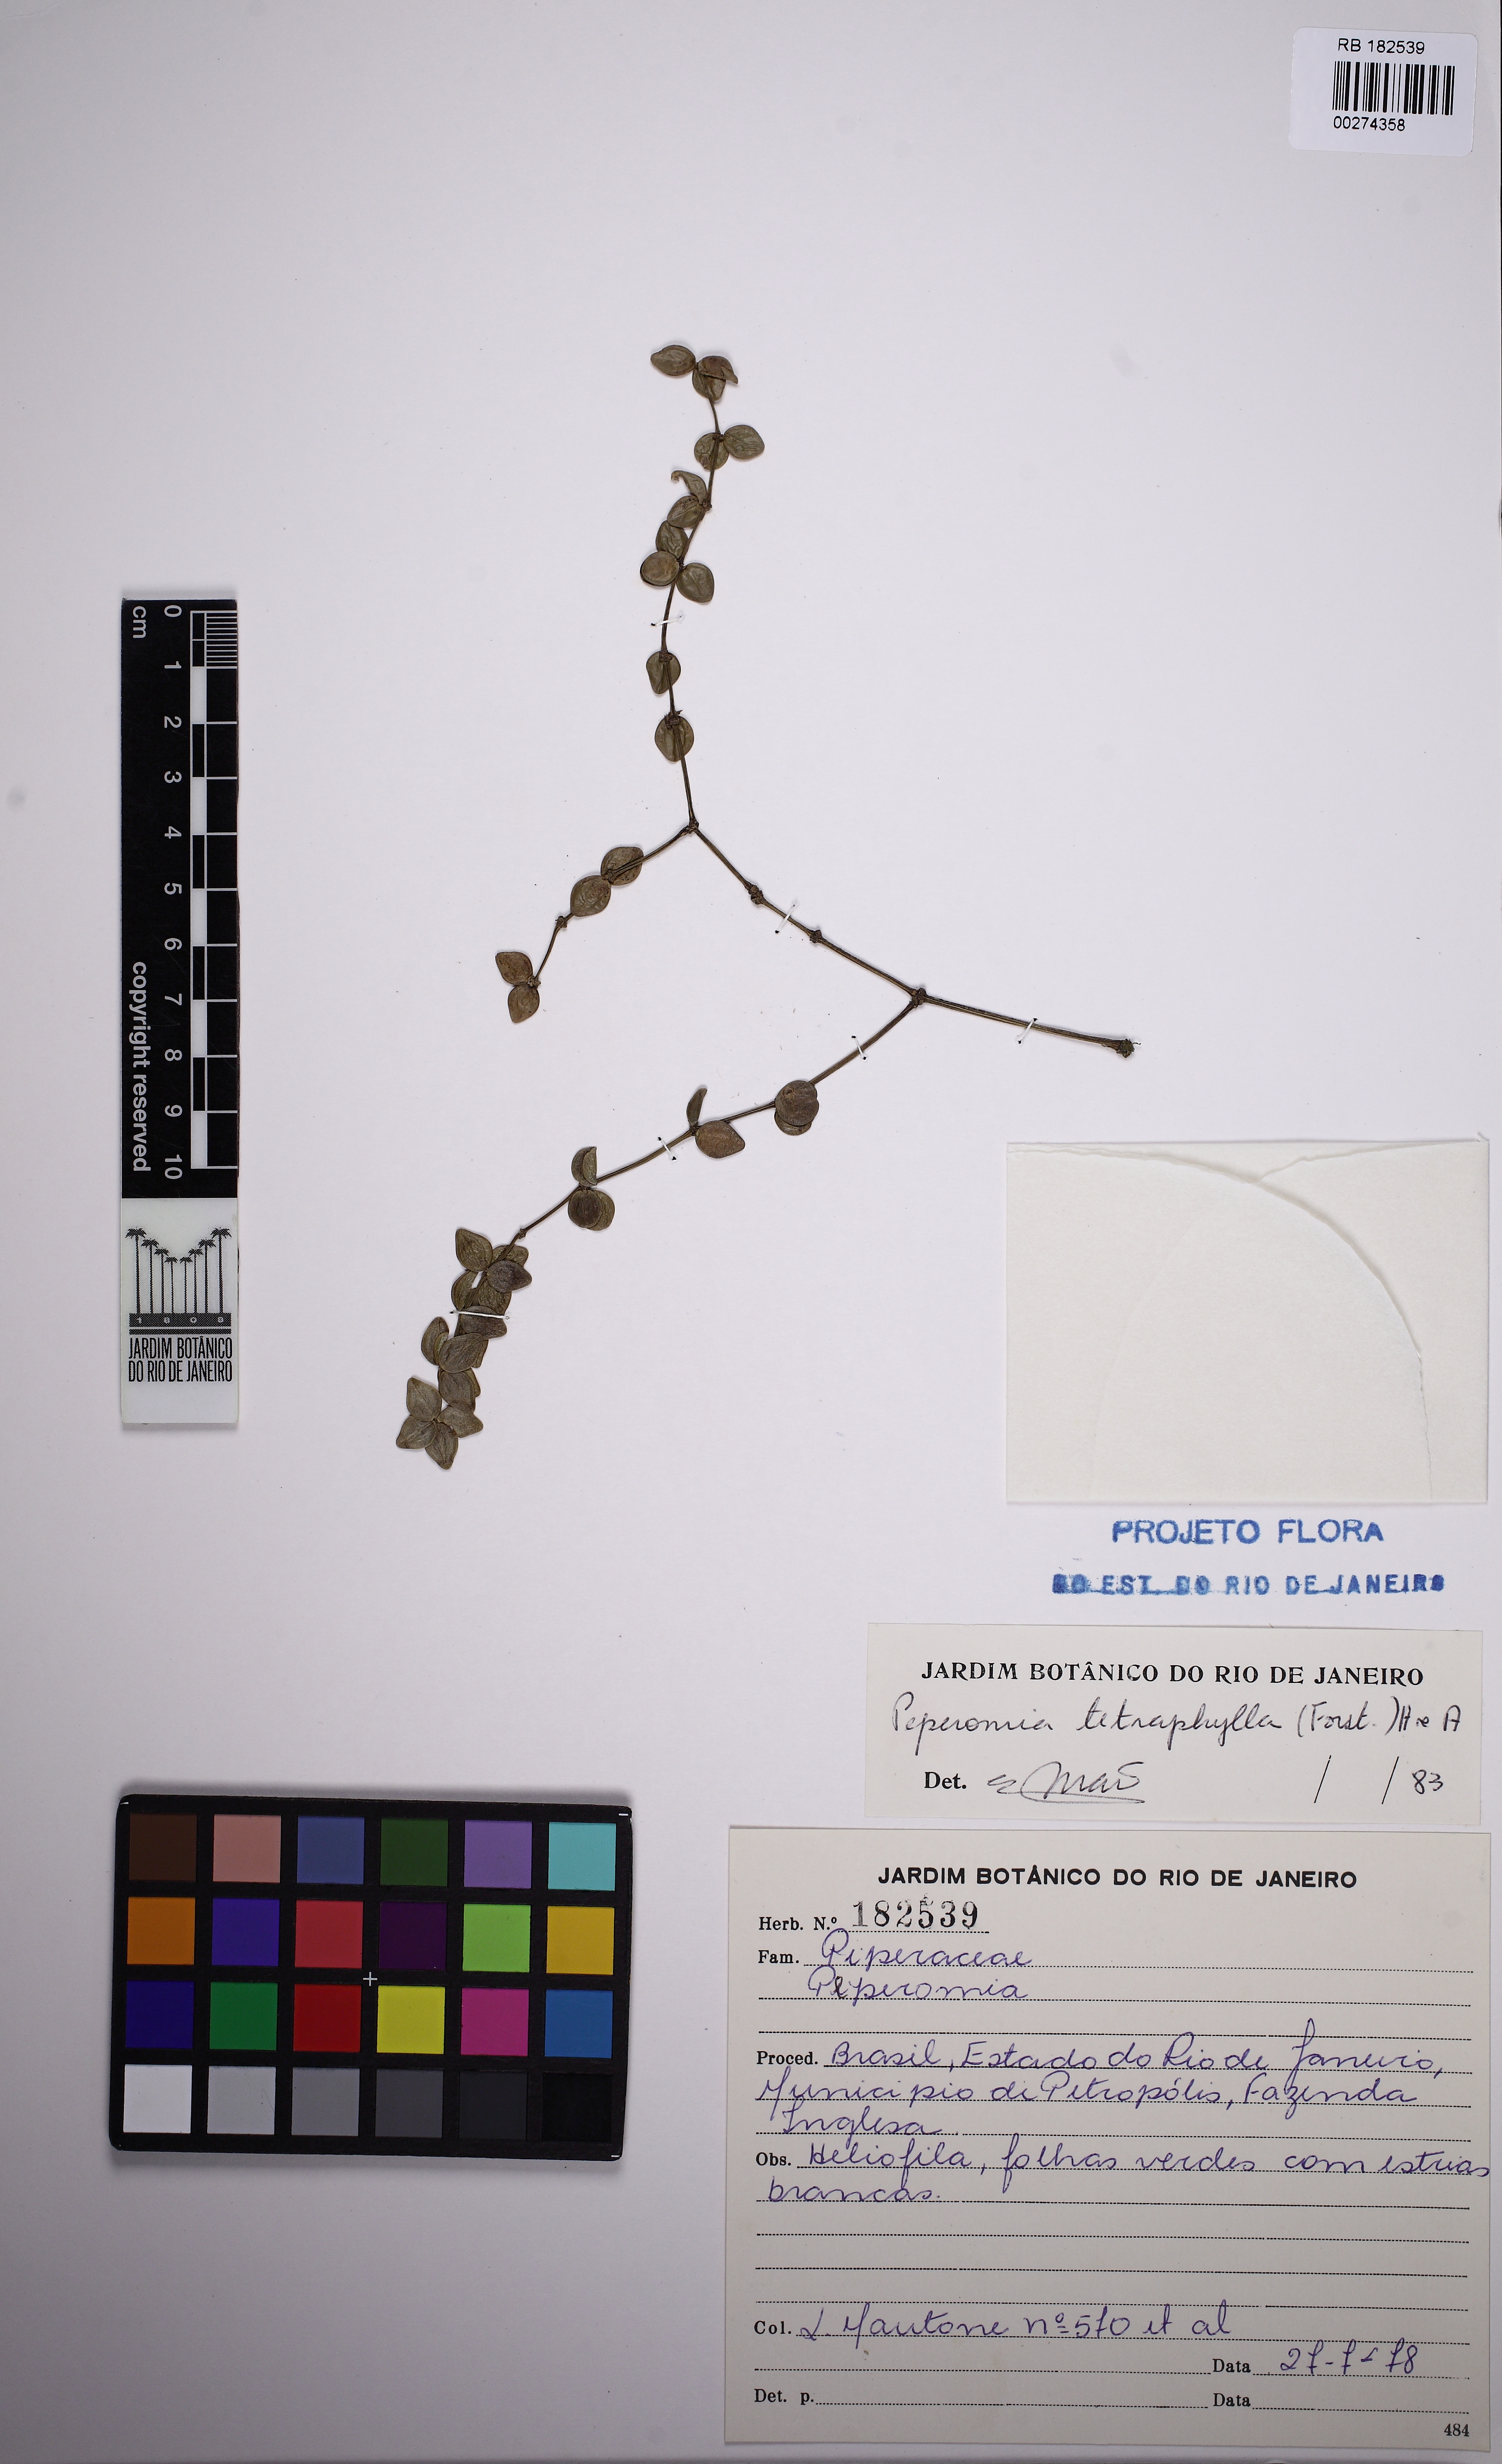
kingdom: Plantae
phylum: Tracheophyta
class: Magnoliopsida
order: Piperales
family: Piperaceae
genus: Peperomia
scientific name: Peperomia tetraphylla
